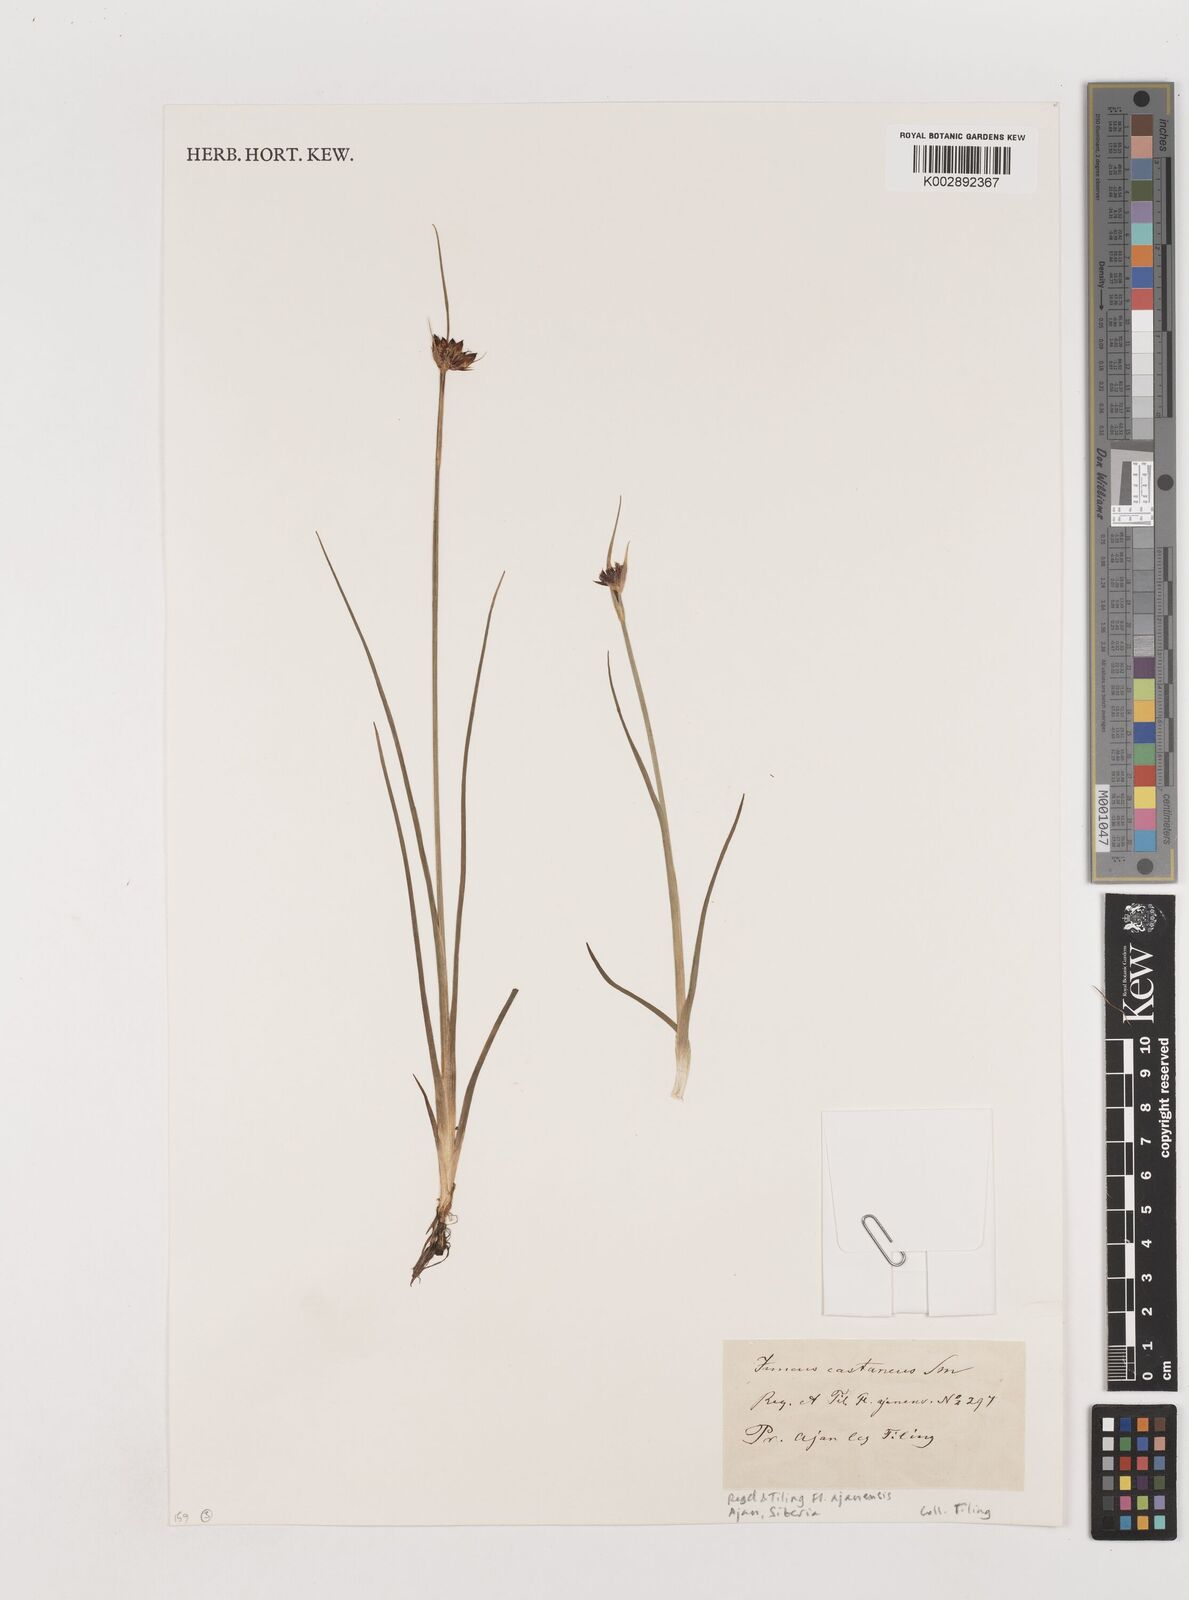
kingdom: Plantae
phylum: Tracheophyta
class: Liliopsida
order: Poales
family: Juncaceae
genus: Juncus
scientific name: Juncus castaneus
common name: Chestnut rush
